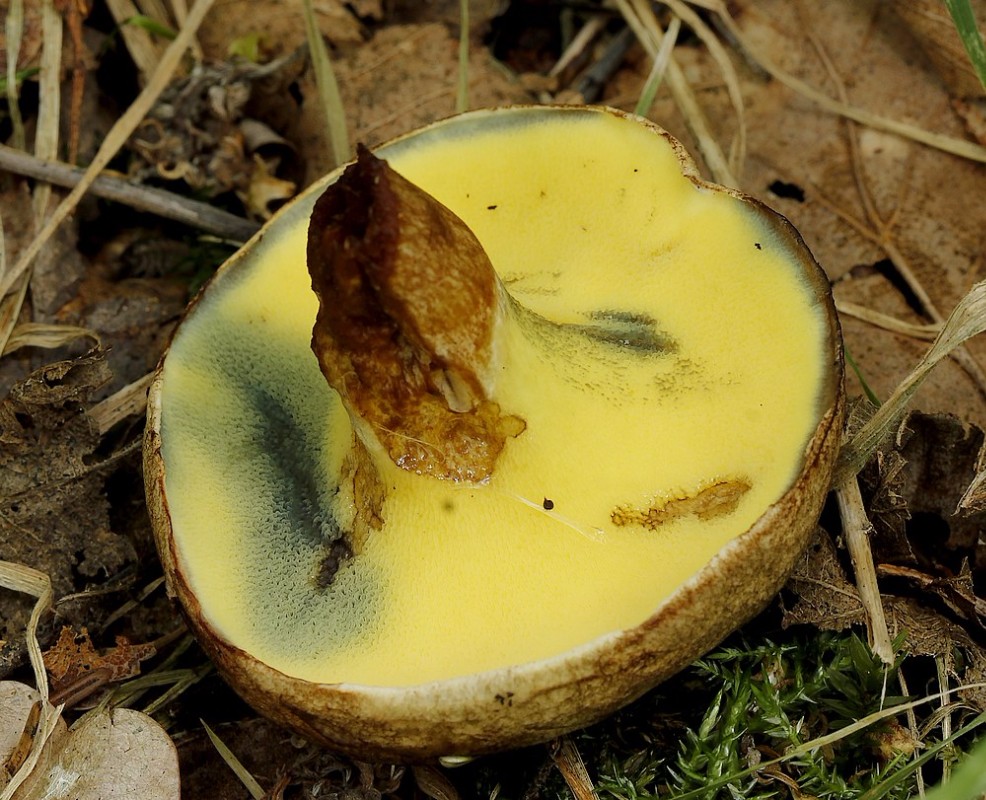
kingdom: Fungi
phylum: Basidiomycota
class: Agaricomycetes
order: Boletales
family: Paxillaceae
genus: Gyrodon
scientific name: Gyrodon lividus
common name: ellerørhat
